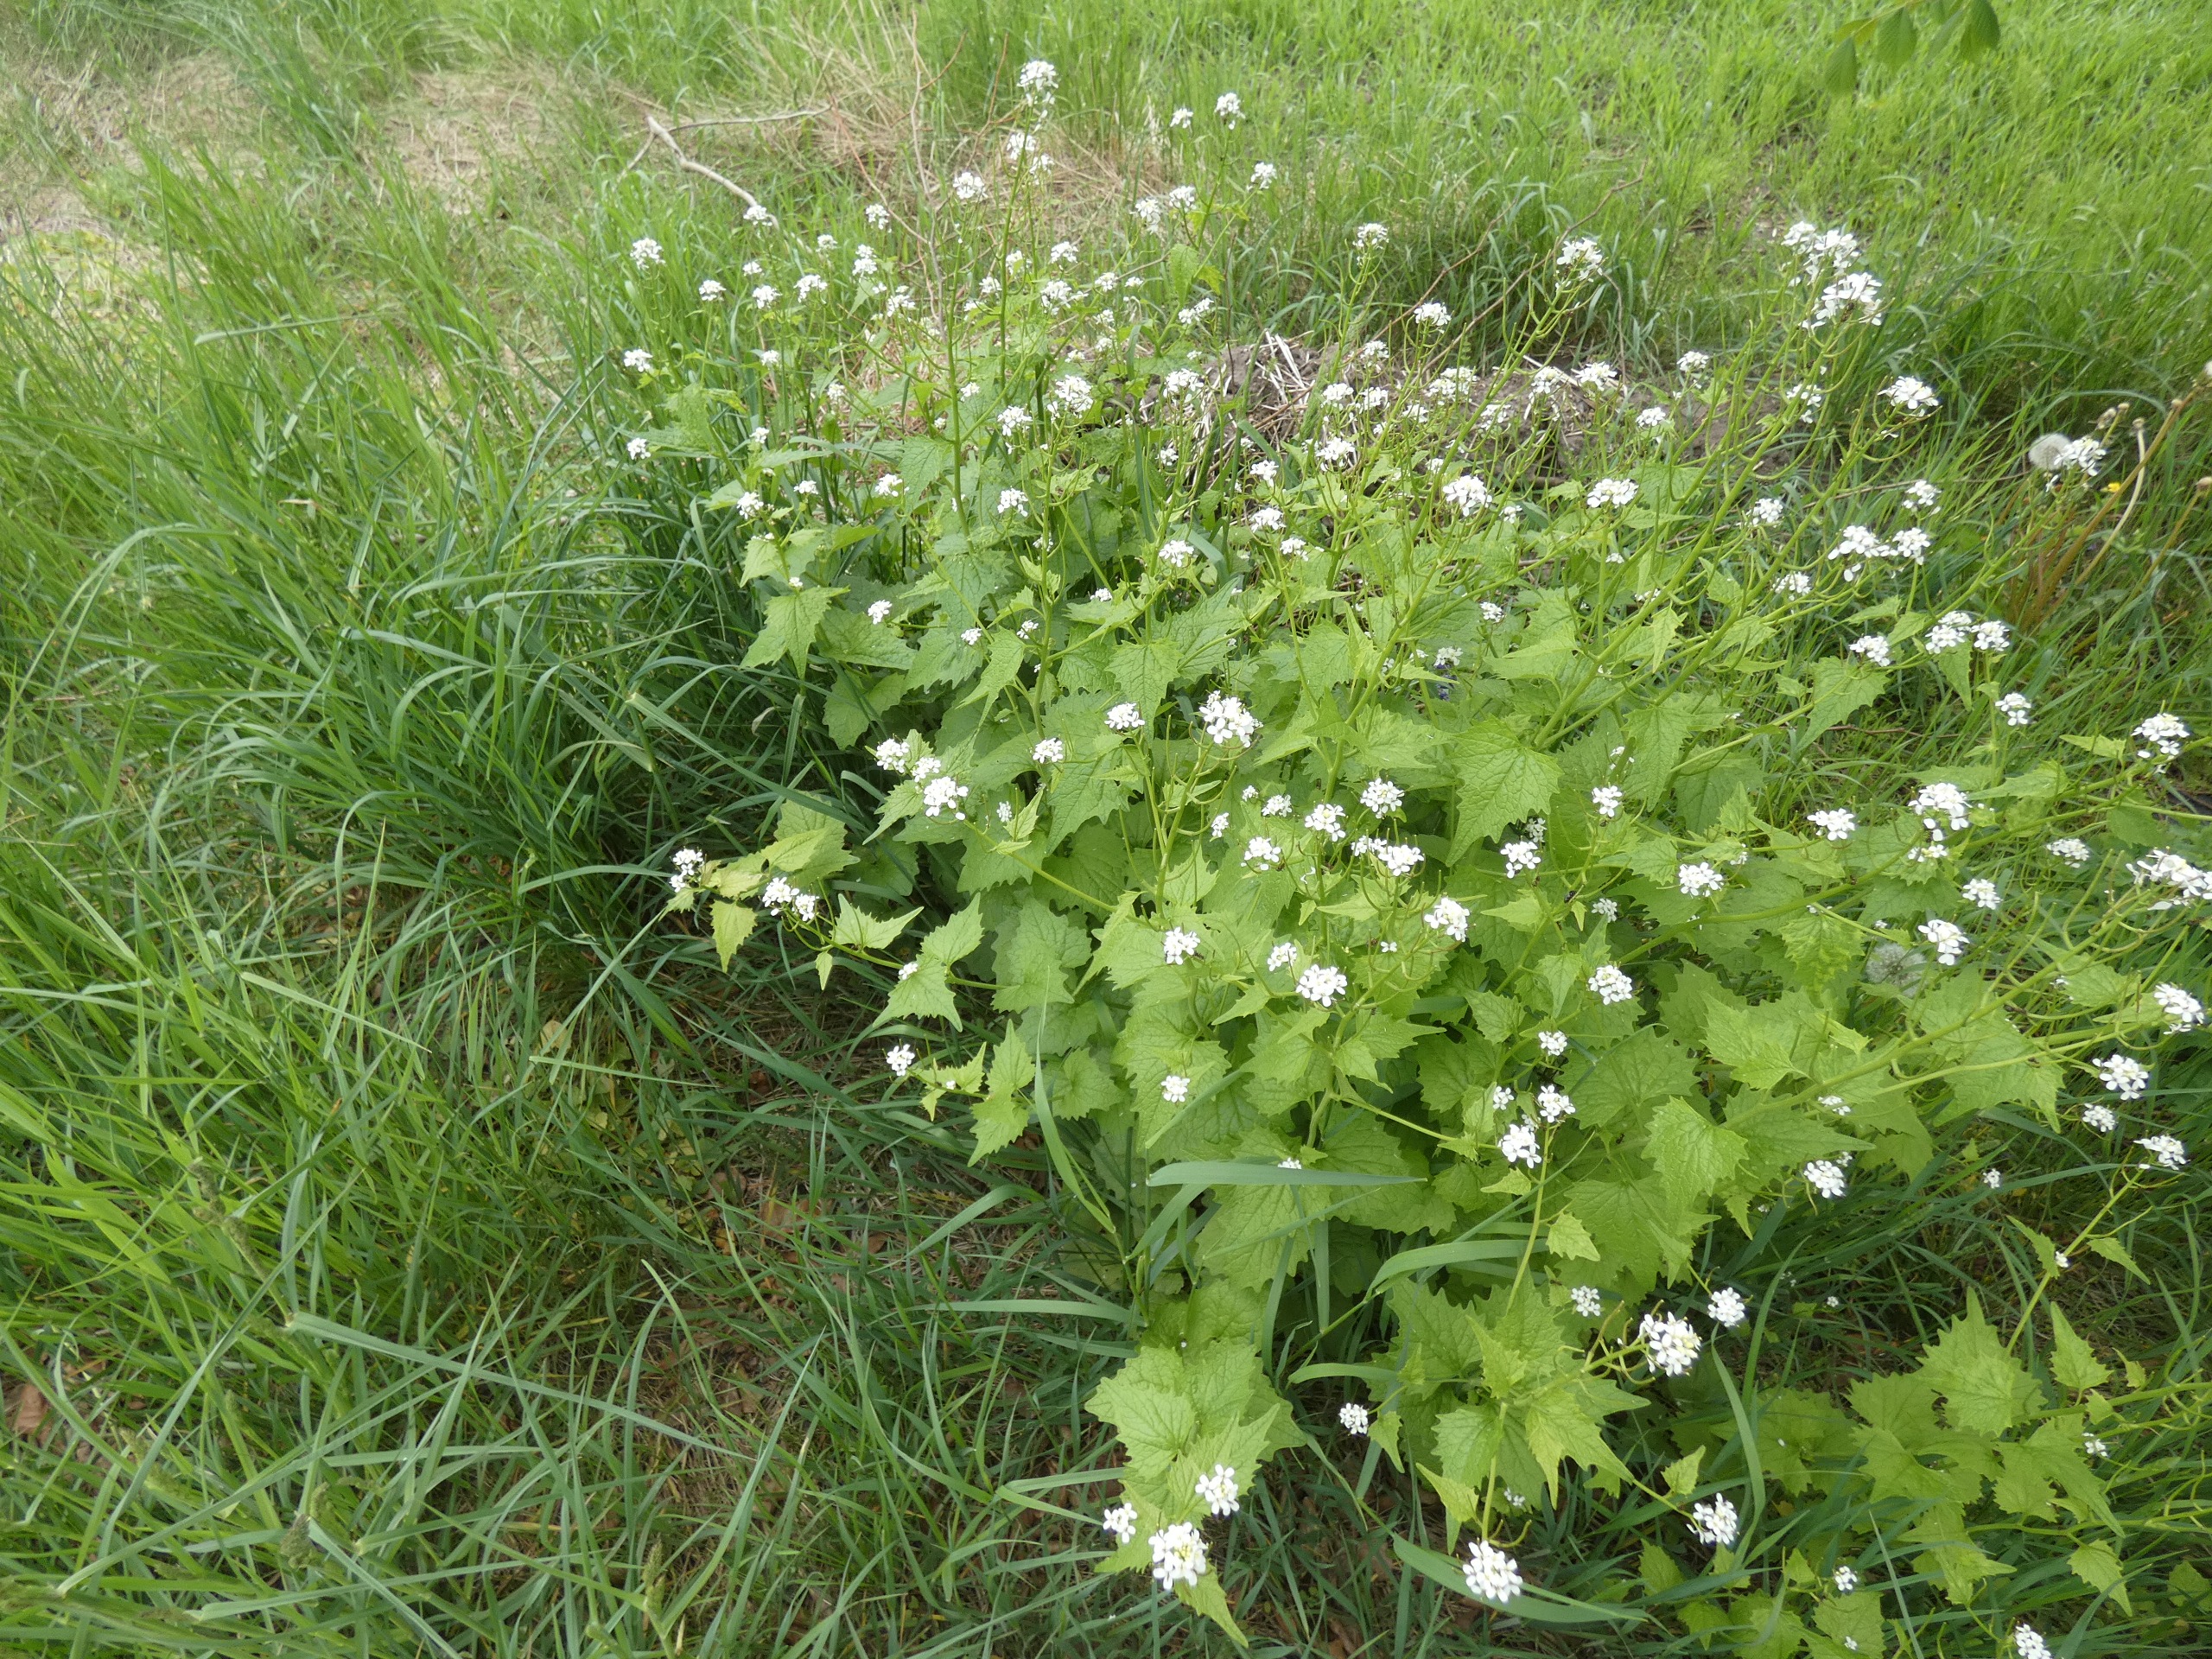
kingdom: Plantae
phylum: Tracheophyta
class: Magnoliopsida
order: Brassicales
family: Brassicaceae
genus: Alliaria
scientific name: Alliaria petiolata
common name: Løgkarse
